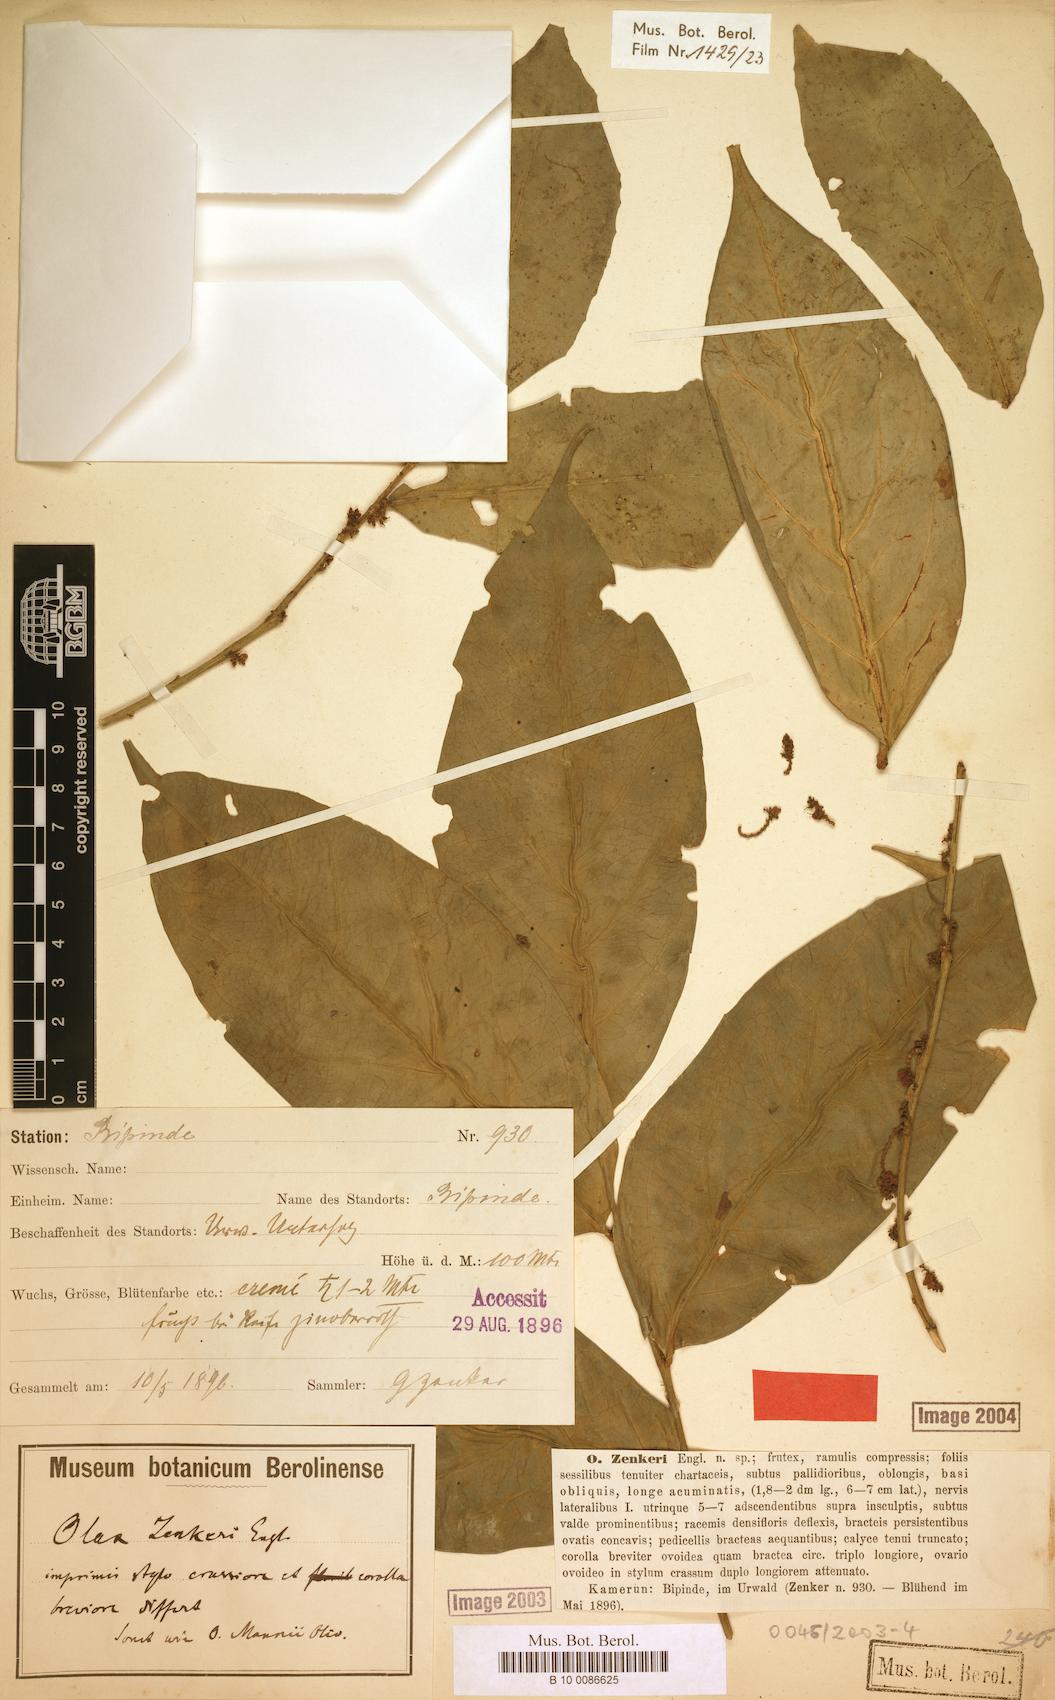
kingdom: Plantae
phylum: Tracheophyta
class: Magnoliopsida
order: Santalales
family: Olacaceae
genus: Olax
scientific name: Olax mannii
